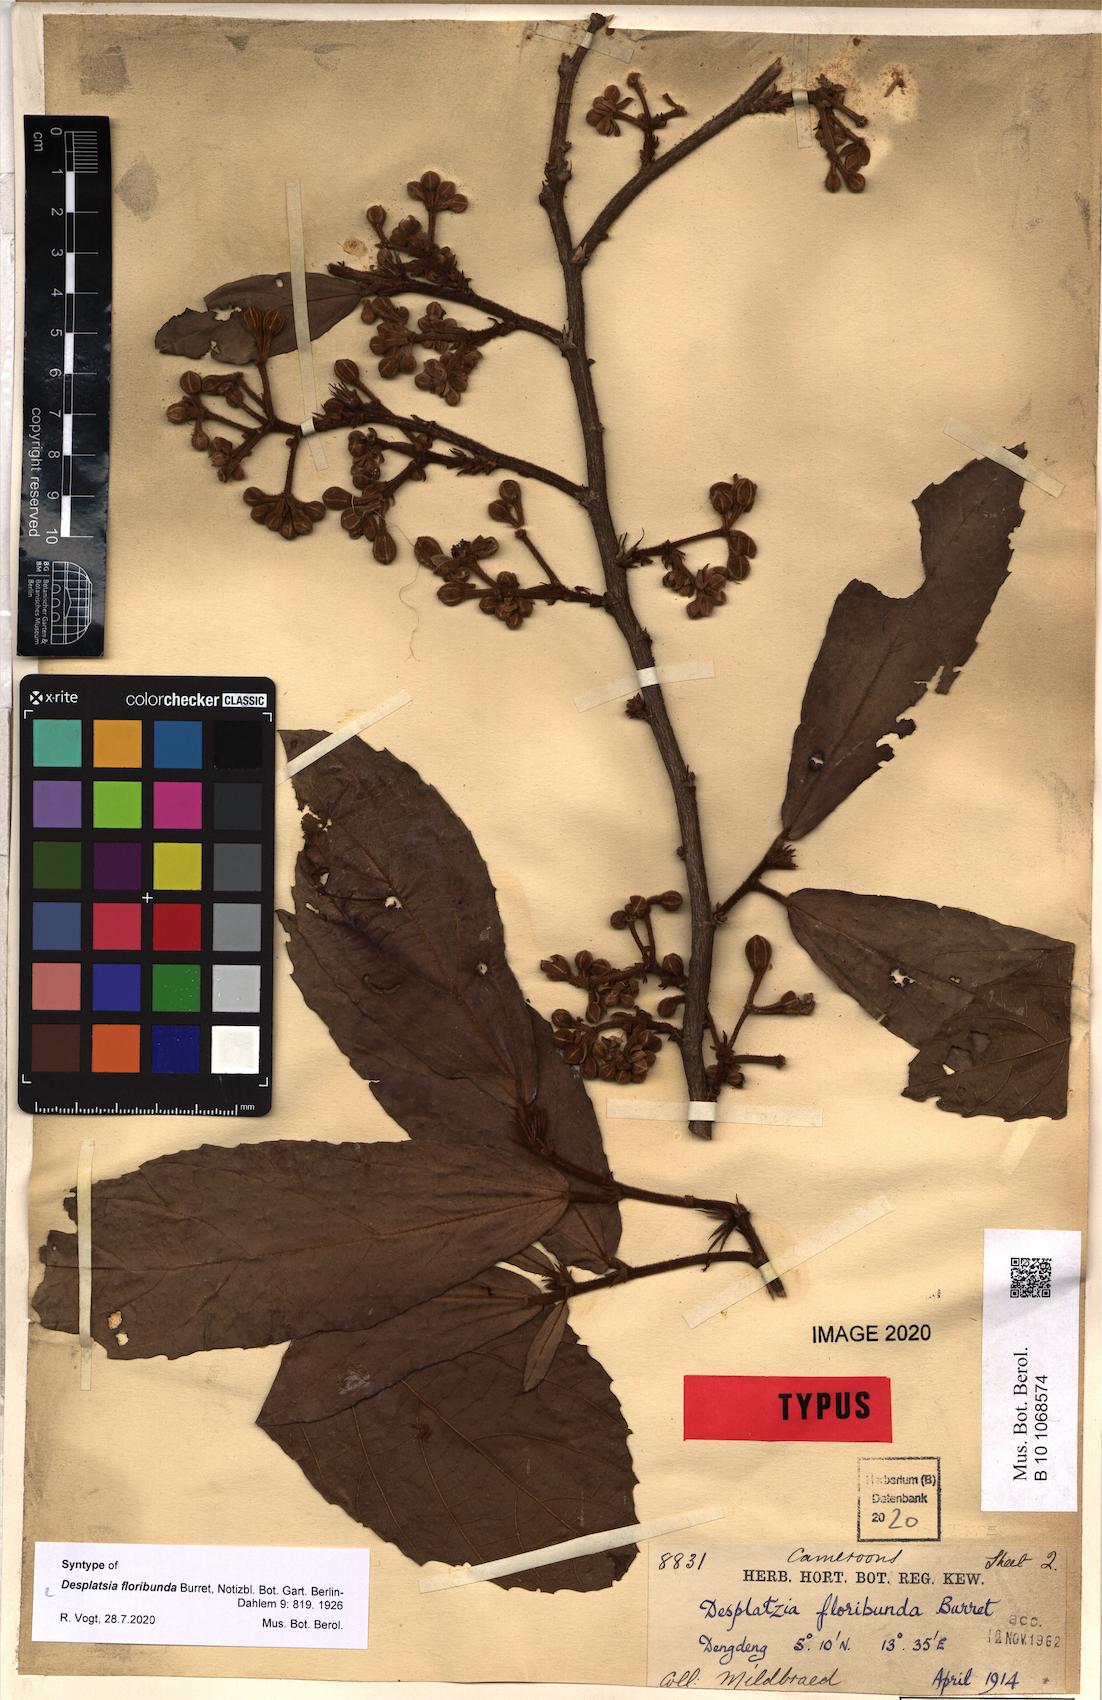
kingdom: Plantae
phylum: Tracheophyta
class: Magnoliopsida
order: Malvales
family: Malvaceae
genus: Desplatsia
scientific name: Desplatsia chrysochlamys
